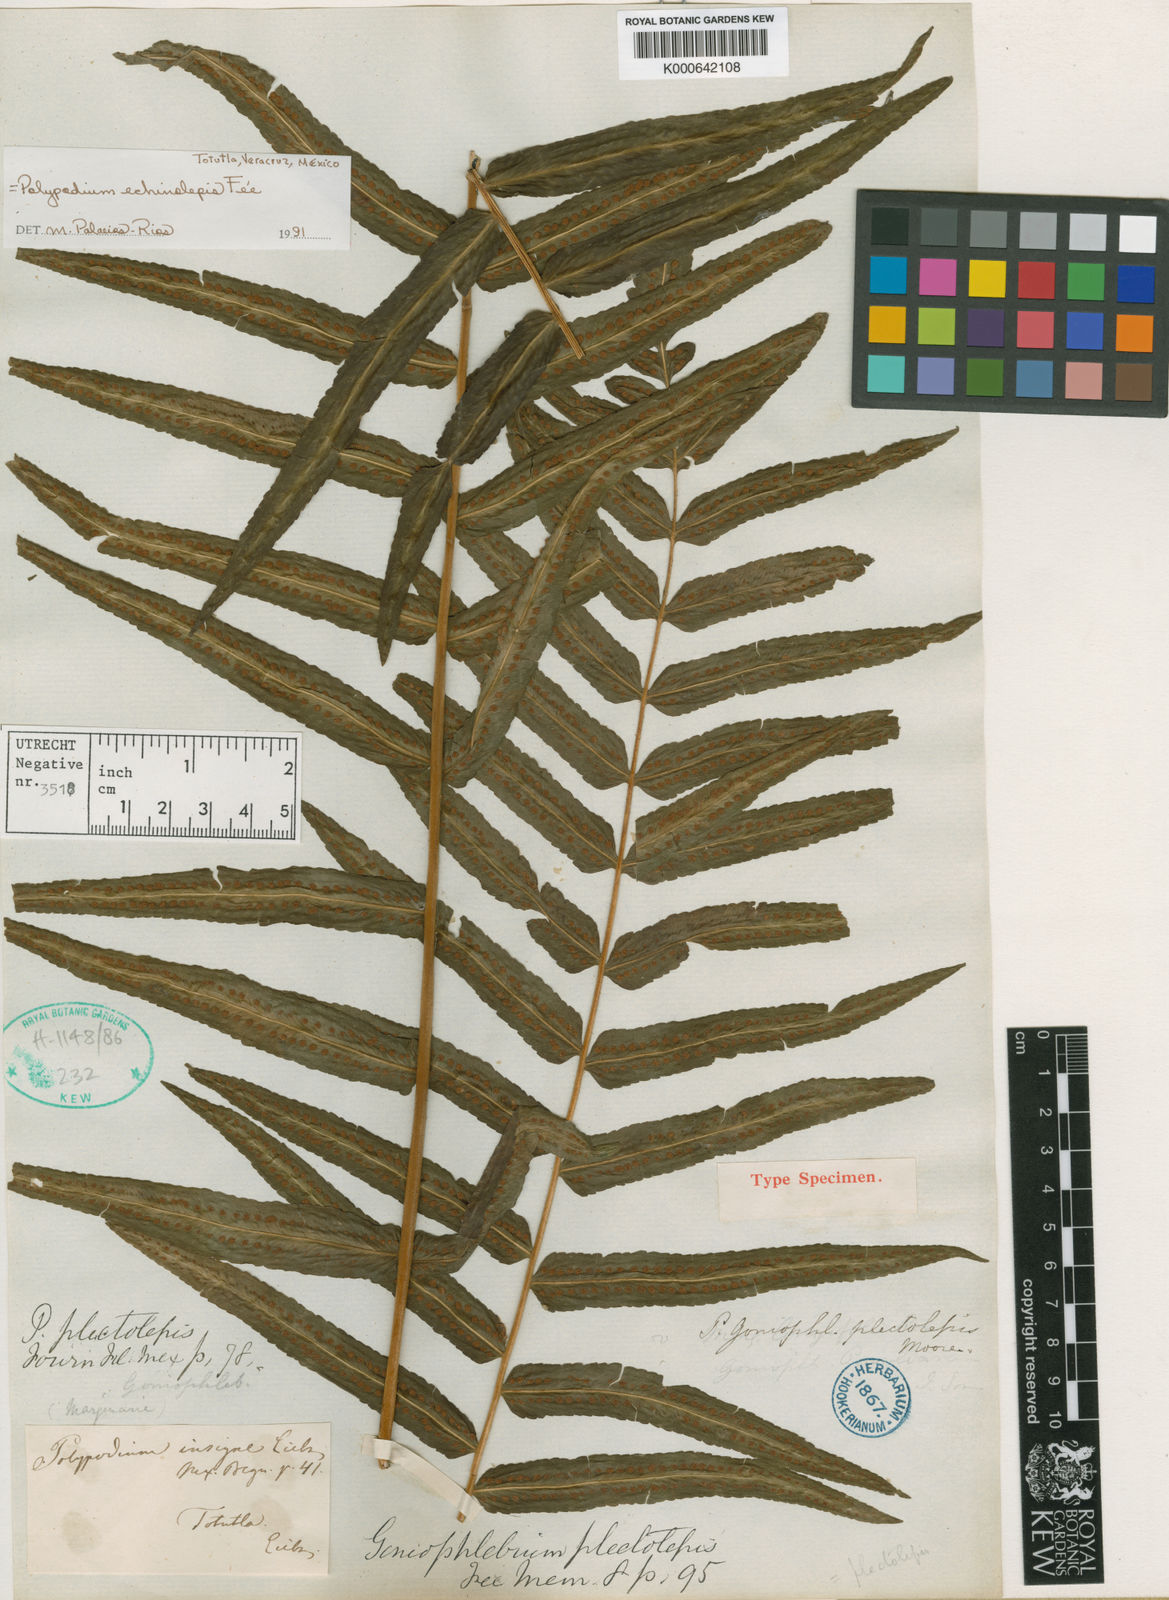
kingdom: Plantae
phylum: Tracheophyta
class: Polypodiopsida
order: Polypodiales
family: Polypodiaceae
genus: Polypodium
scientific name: Polypodium
